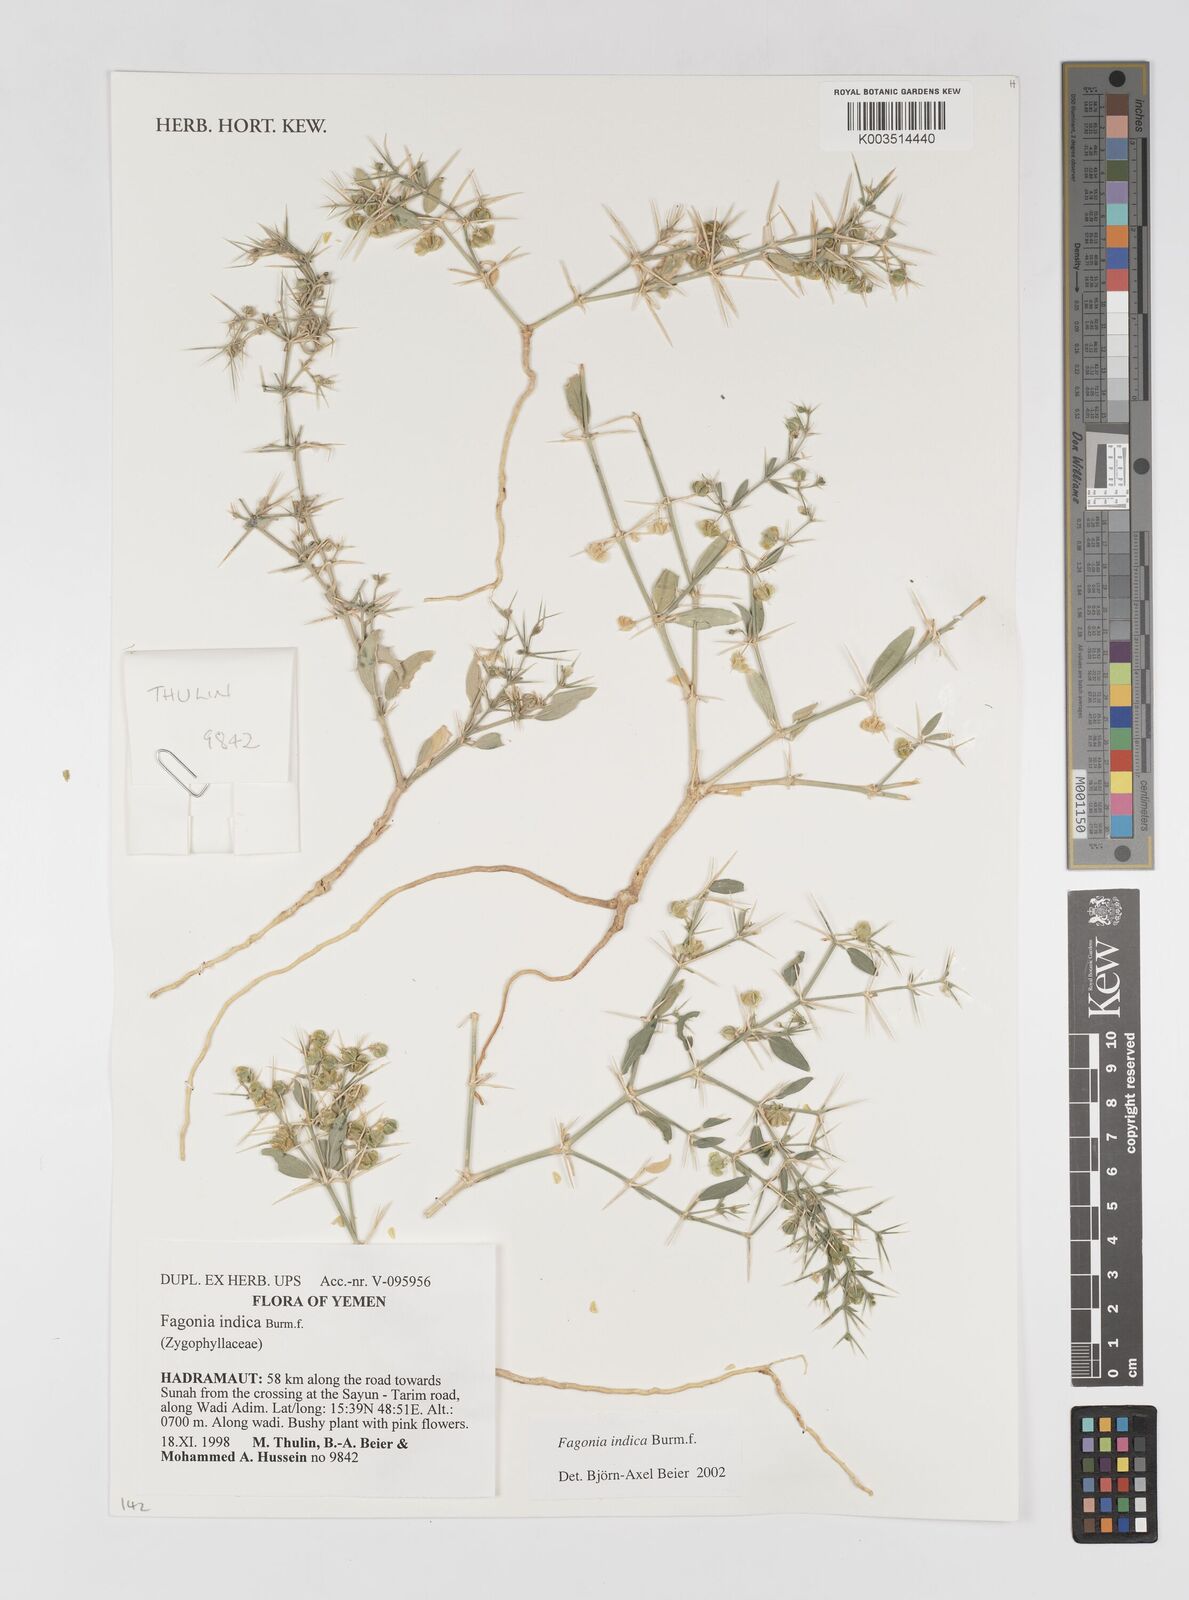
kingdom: Plantae
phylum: Tracheophyta
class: Magnoliopsida
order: Zygophyllales
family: Zygophyllaceae
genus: Fagonia
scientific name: Fagonia indica
